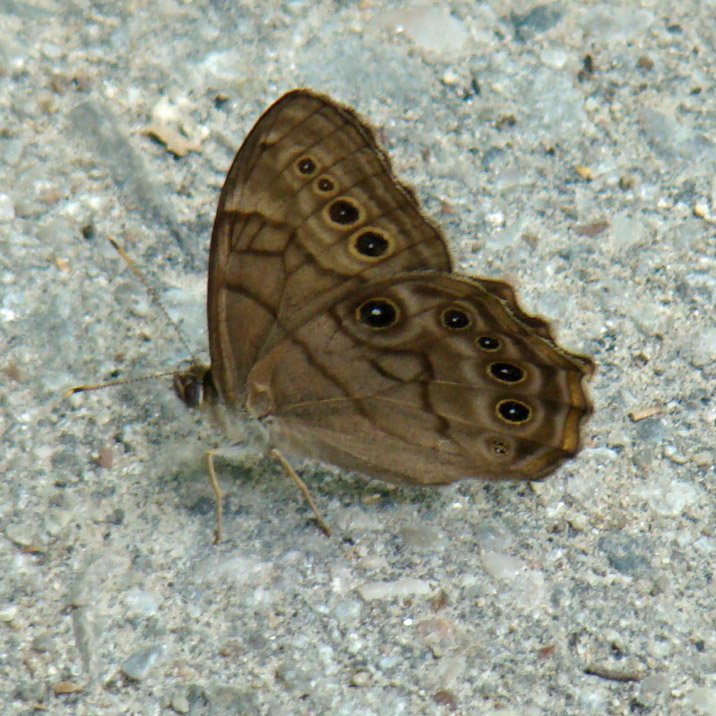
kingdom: Animalia
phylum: Arthropoda
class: Insecta
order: Lepidoptera
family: Nymphalidae
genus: Lethe
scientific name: Lethe anthedon
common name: Northern Pearly-Eye
